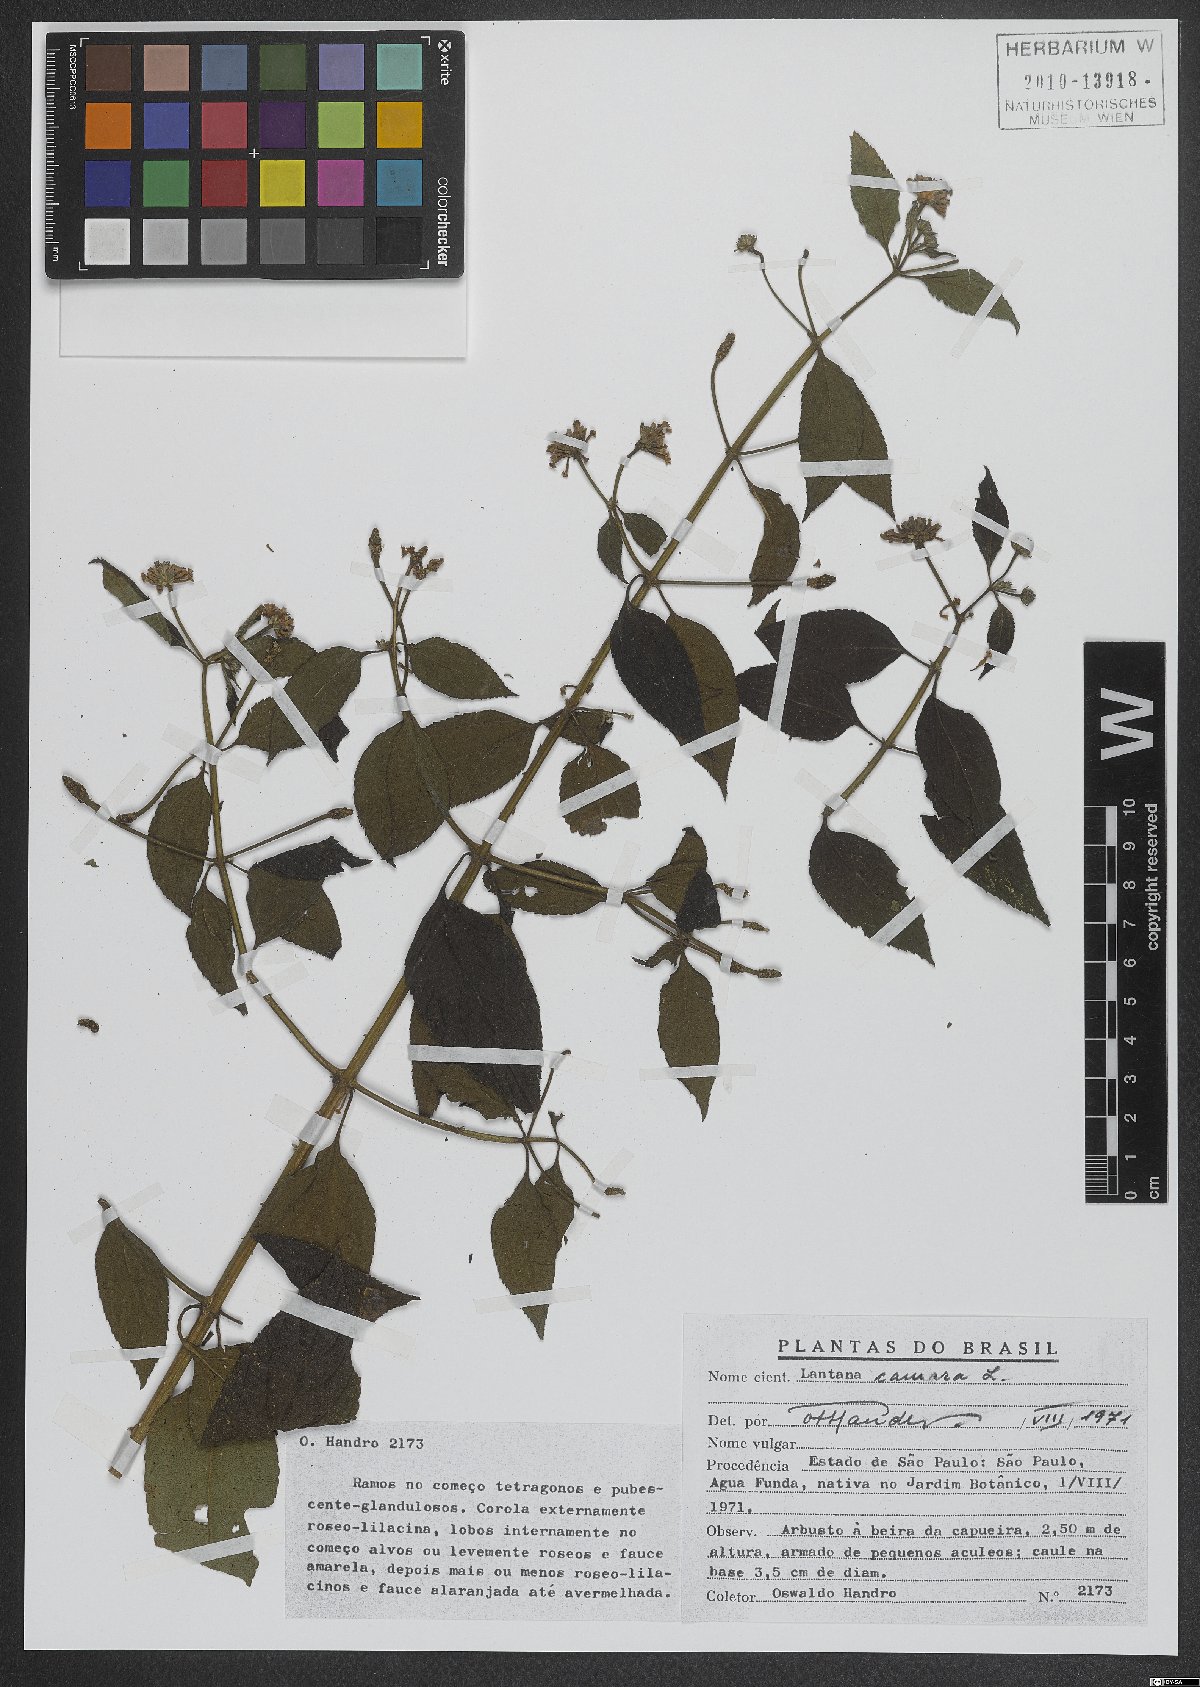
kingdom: Plantae
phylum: Tracheophyta
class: Magnoliopsida
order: Lamiales
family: Verbenaceae
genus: Lantana
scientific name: Lantana camara
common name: Lantana
